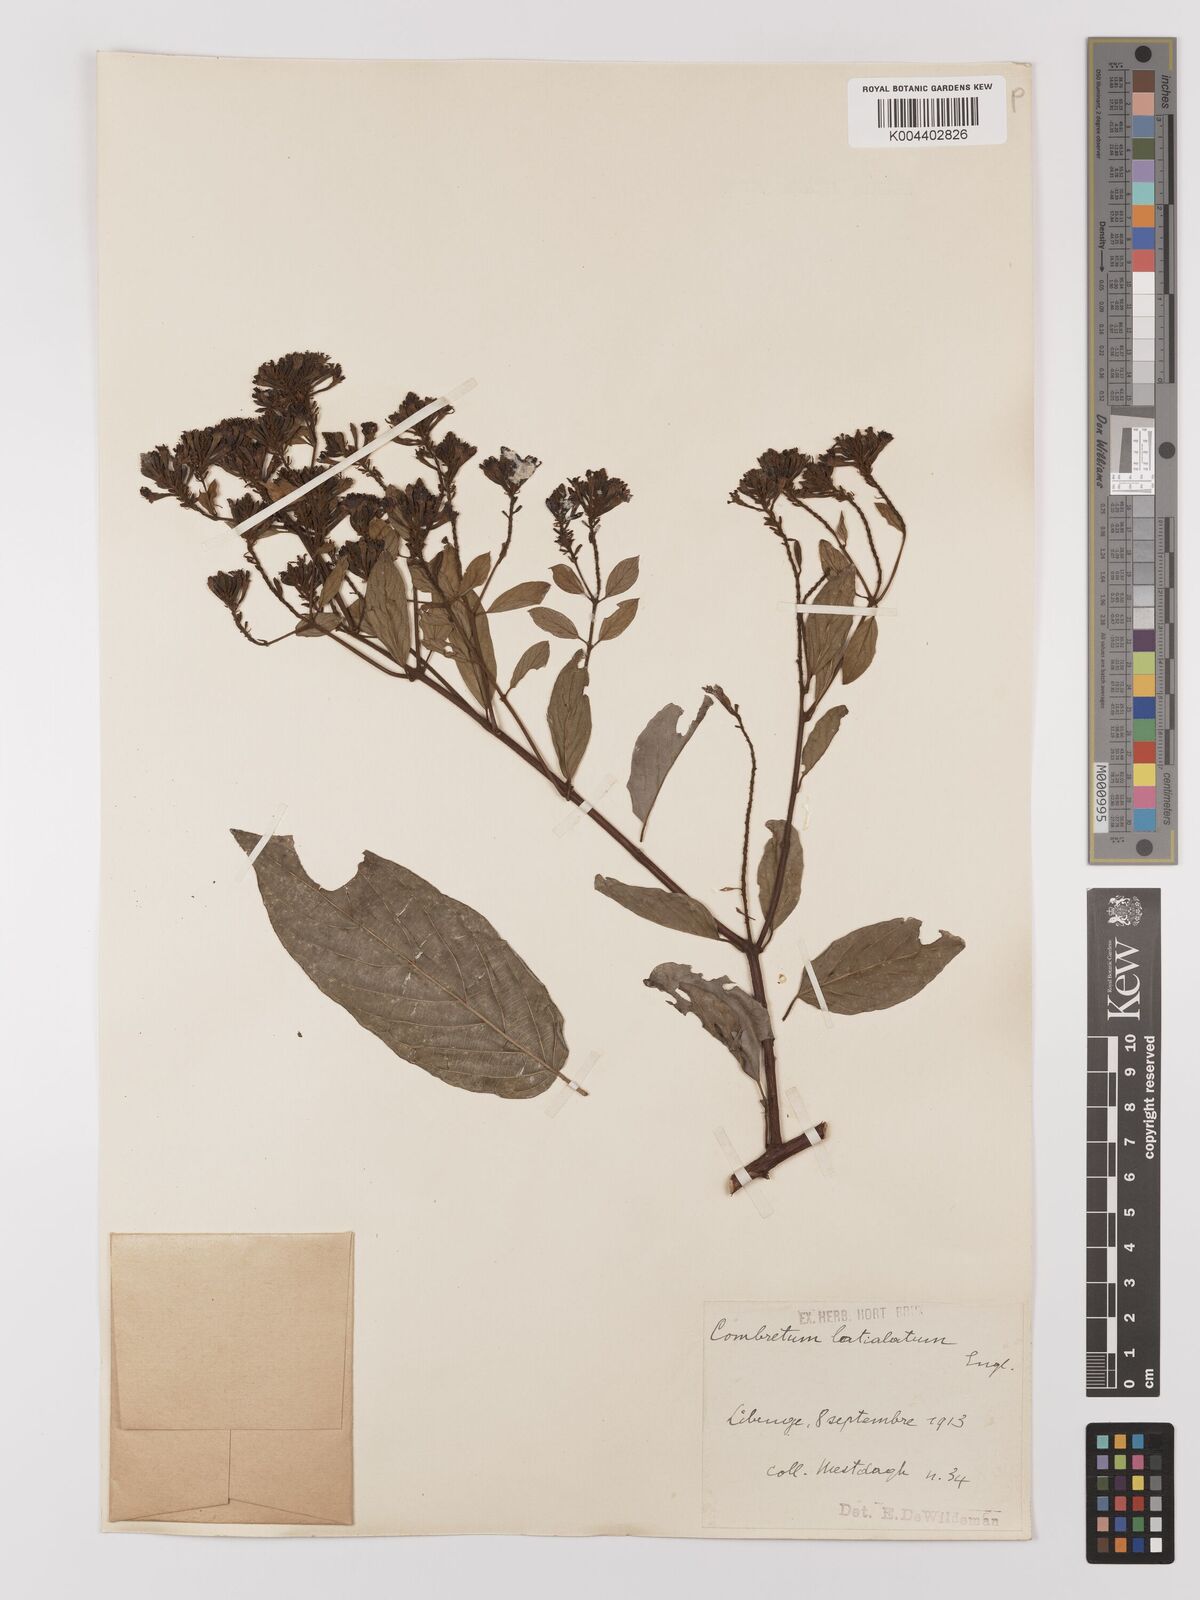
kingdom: Plantae
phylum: Tracheophyta
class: Magnoliopsida
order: Myrtales
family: Combretaceae
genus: Combretum
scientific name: Combretum latialatum
